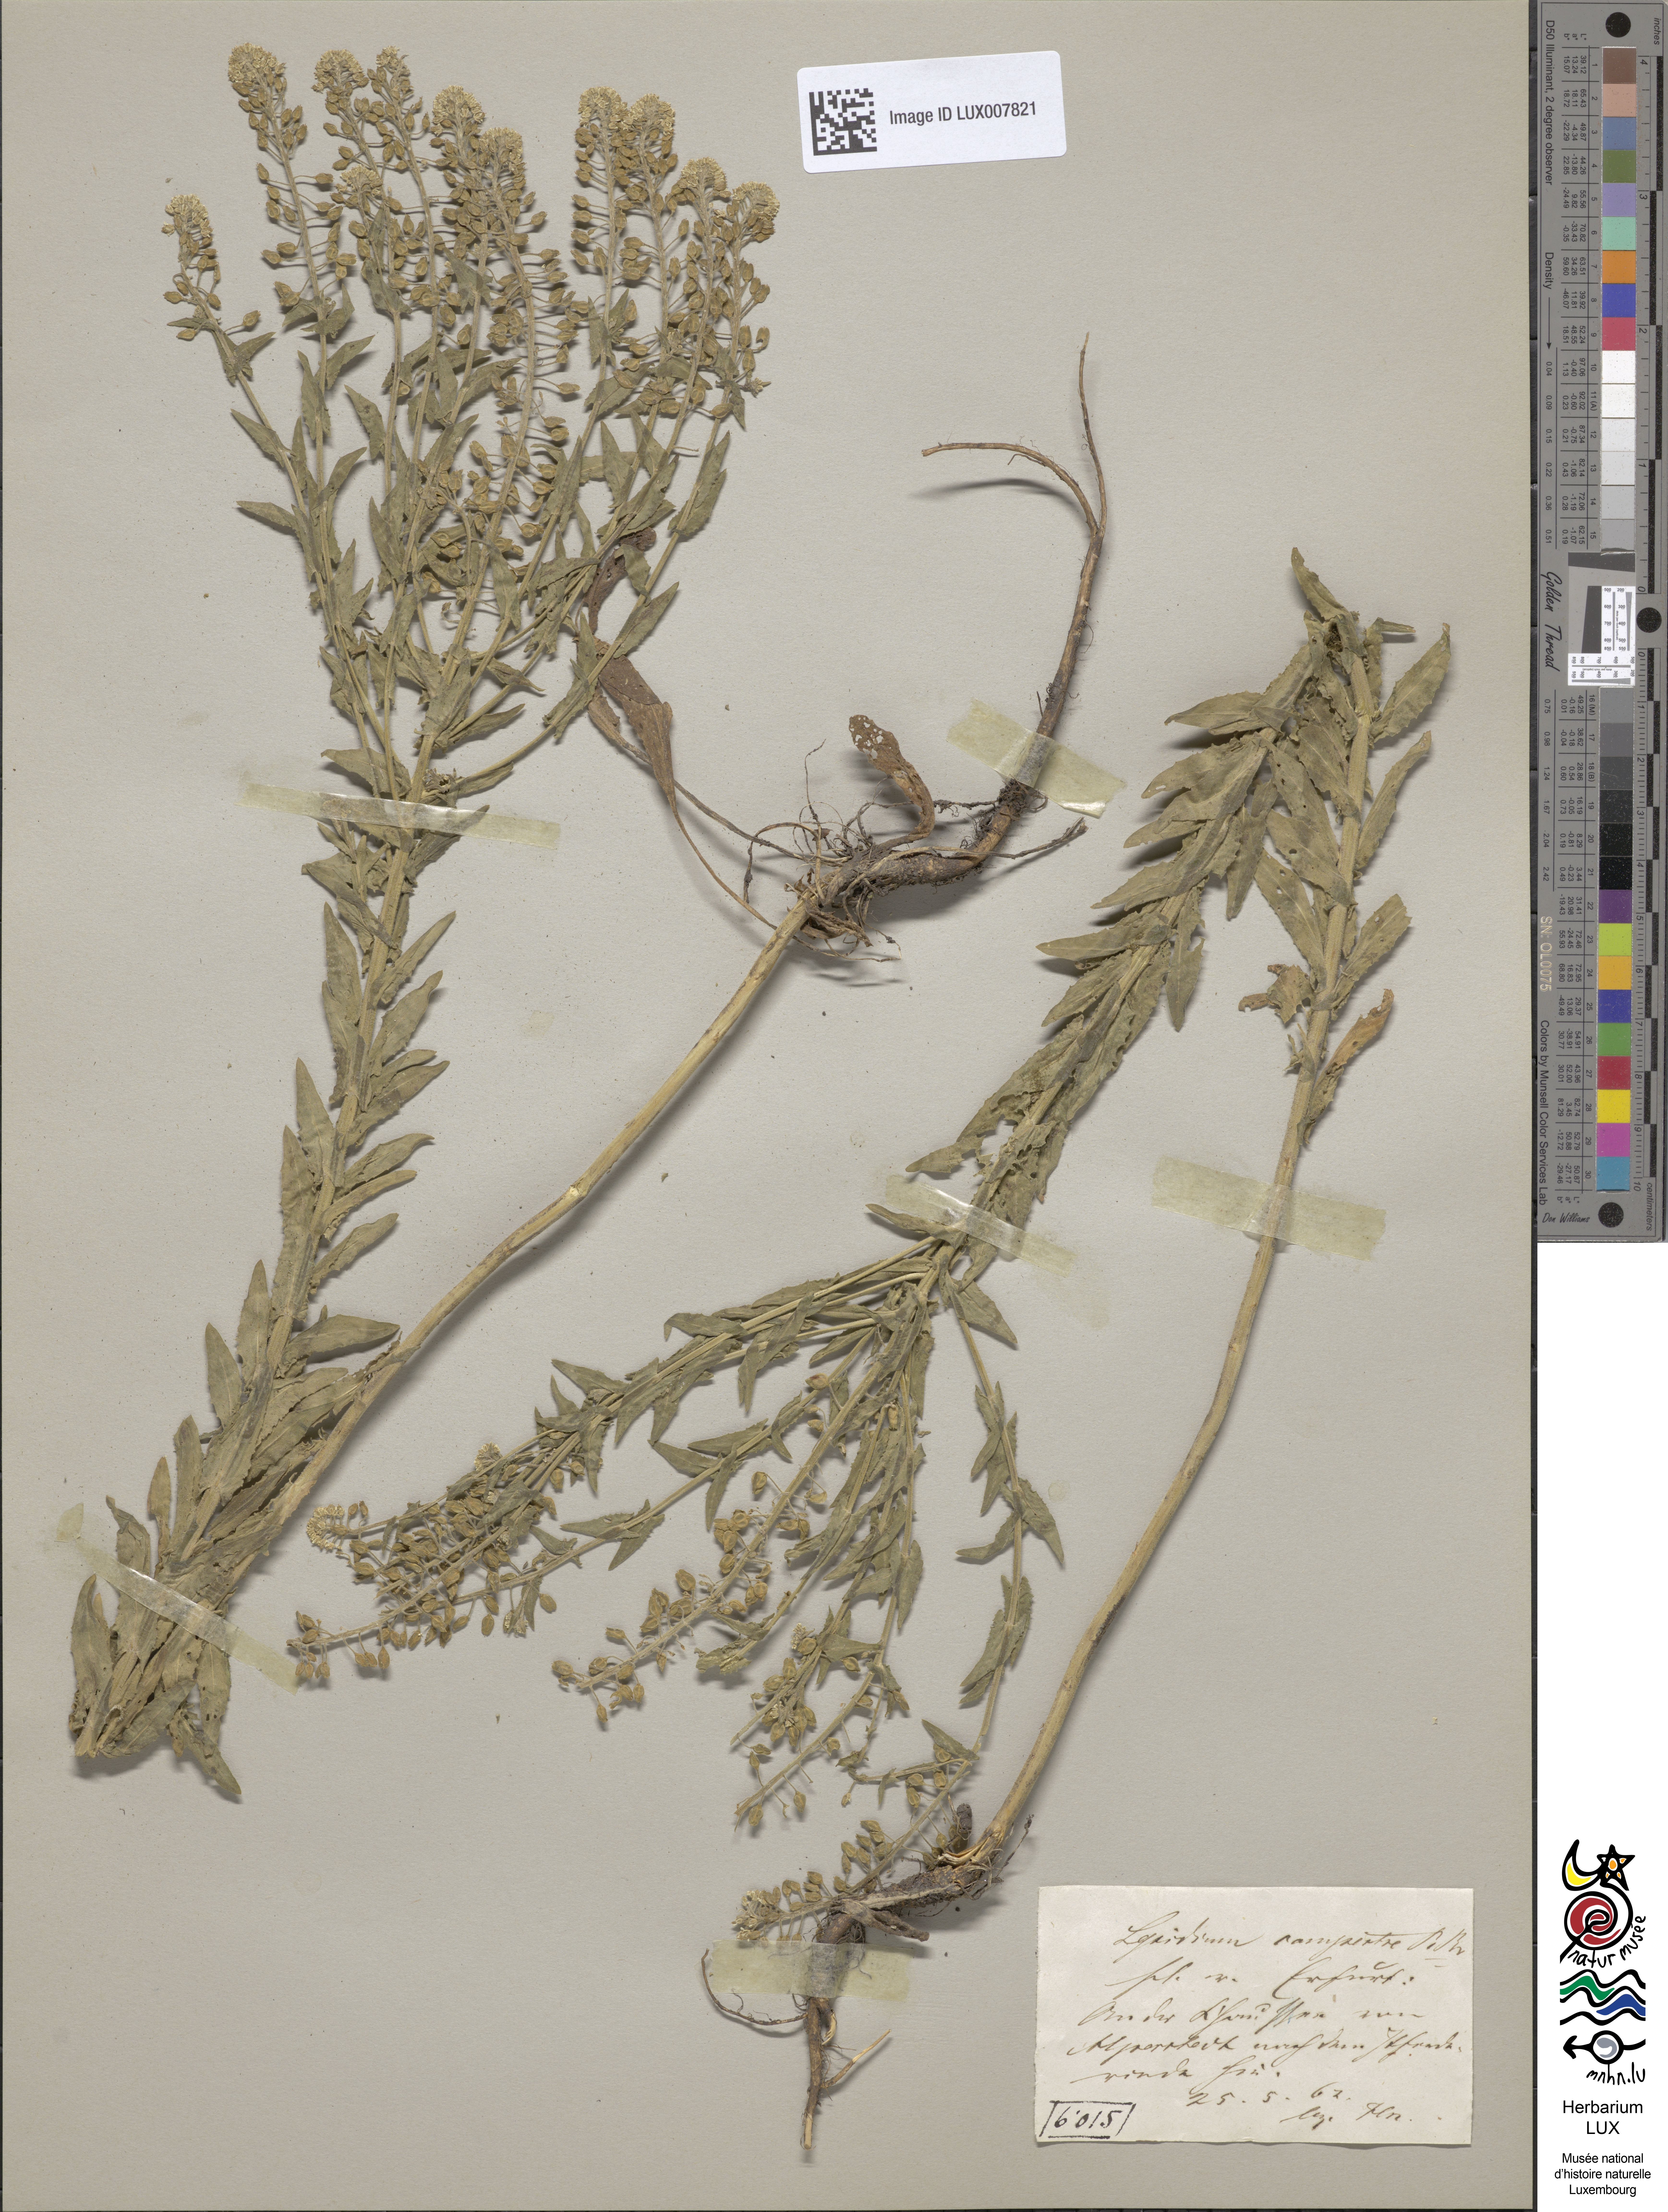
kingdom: Plantae
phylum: Tracheophyta
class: Magnoliopsida
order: Brassicales
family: Brassicaceae
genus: Lepidium
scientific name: Lepidium campestre
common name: Field pepperwort
